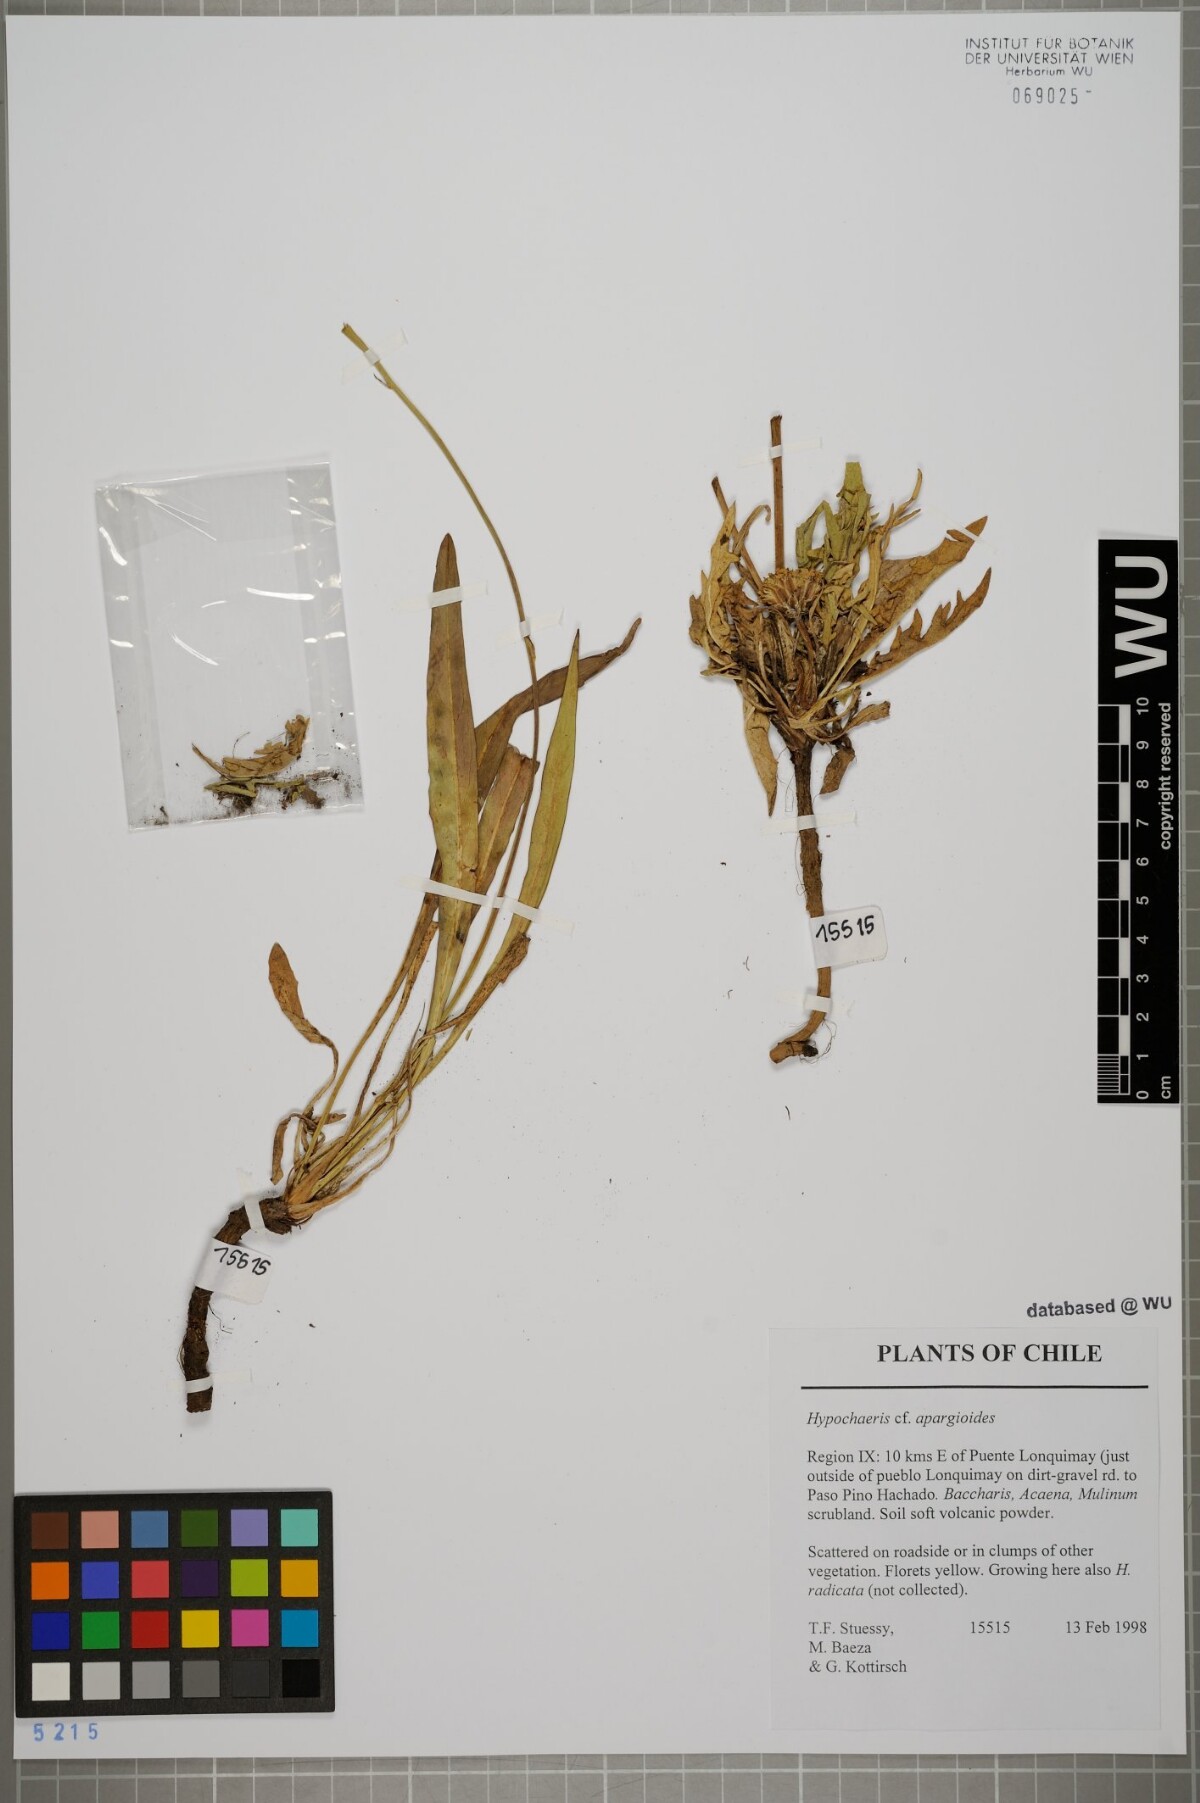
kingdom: Plantae
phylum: Tracheophyta
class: Magnoliopsida
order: Asterales
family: Asteraceae
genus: Hypochaeris
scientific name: Hypochaeris apargioides
